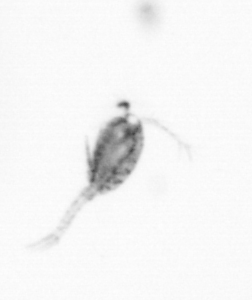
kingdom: Animalia
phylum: Arthropoda
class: Copepoda
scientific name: Copepoda
